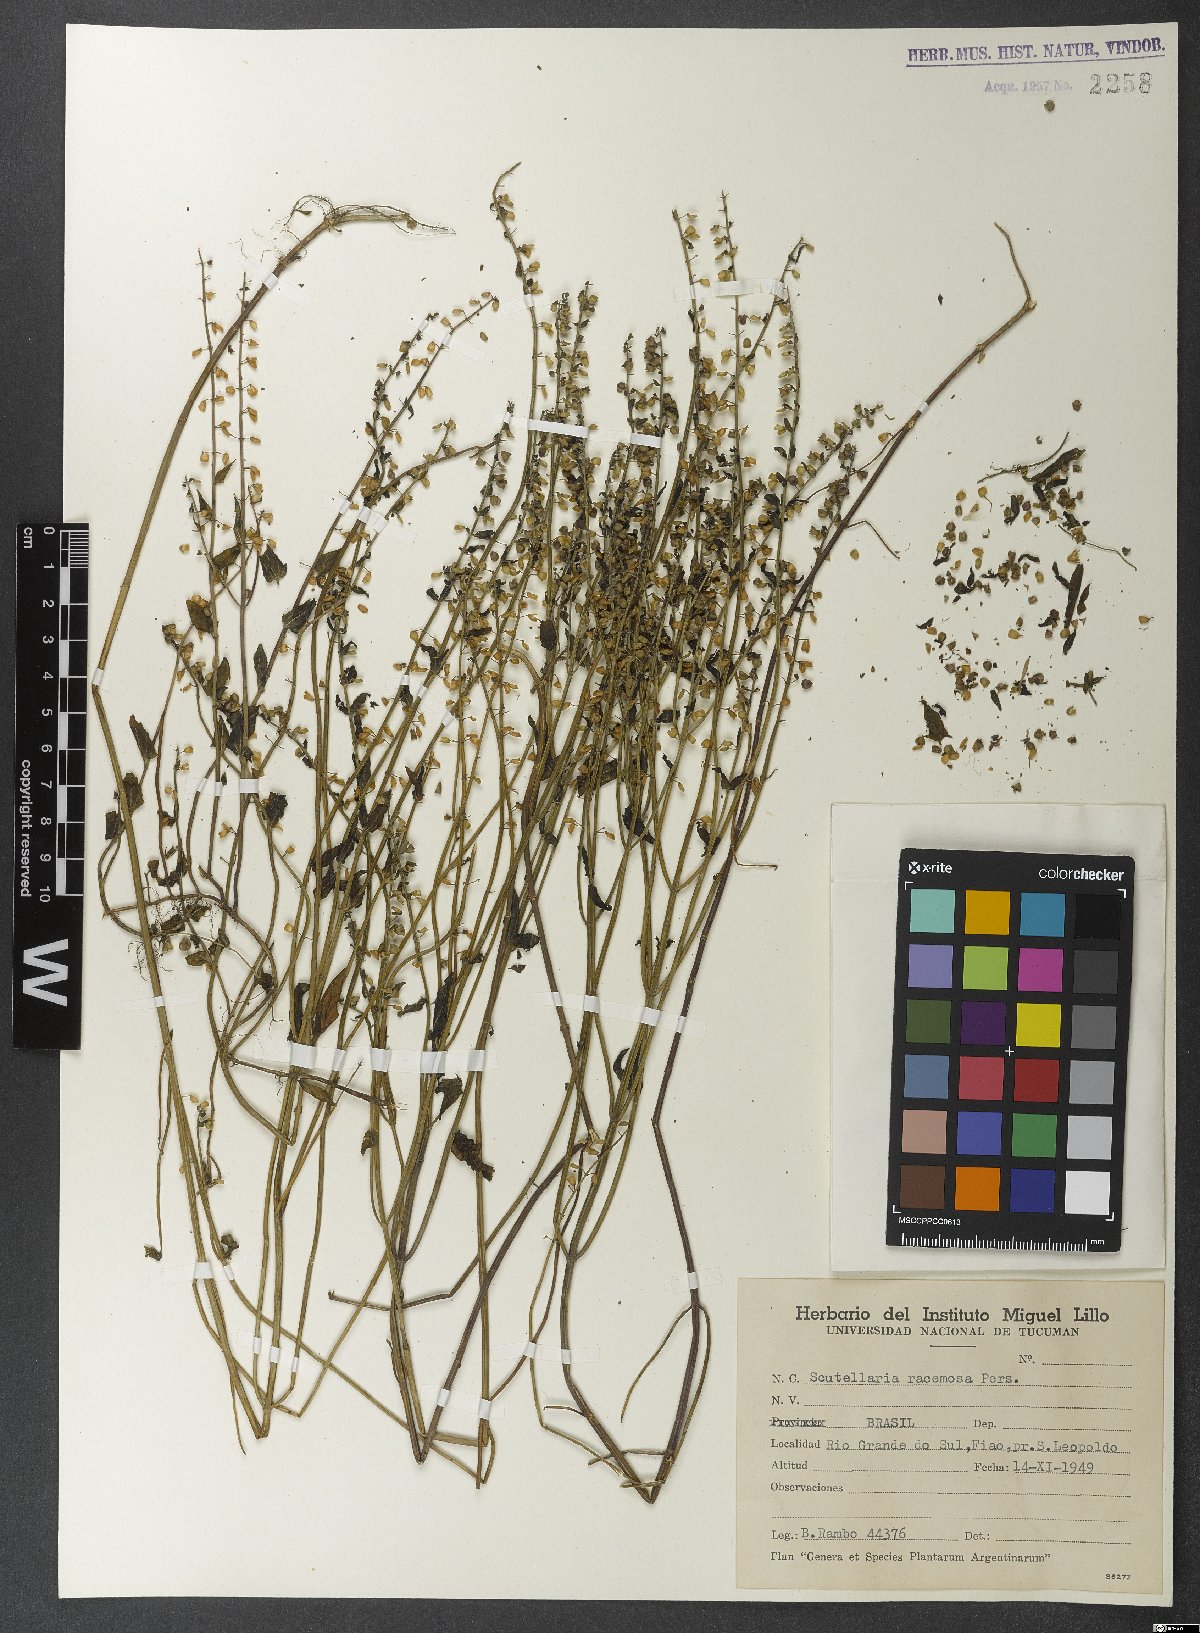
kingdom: Plantae
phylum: Tracheophyta
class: Magnoliopsida
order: Lamiales
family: Lamiaceae
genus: Scutellaria
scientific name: Scutellaria racemosa
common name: South american skullcap
